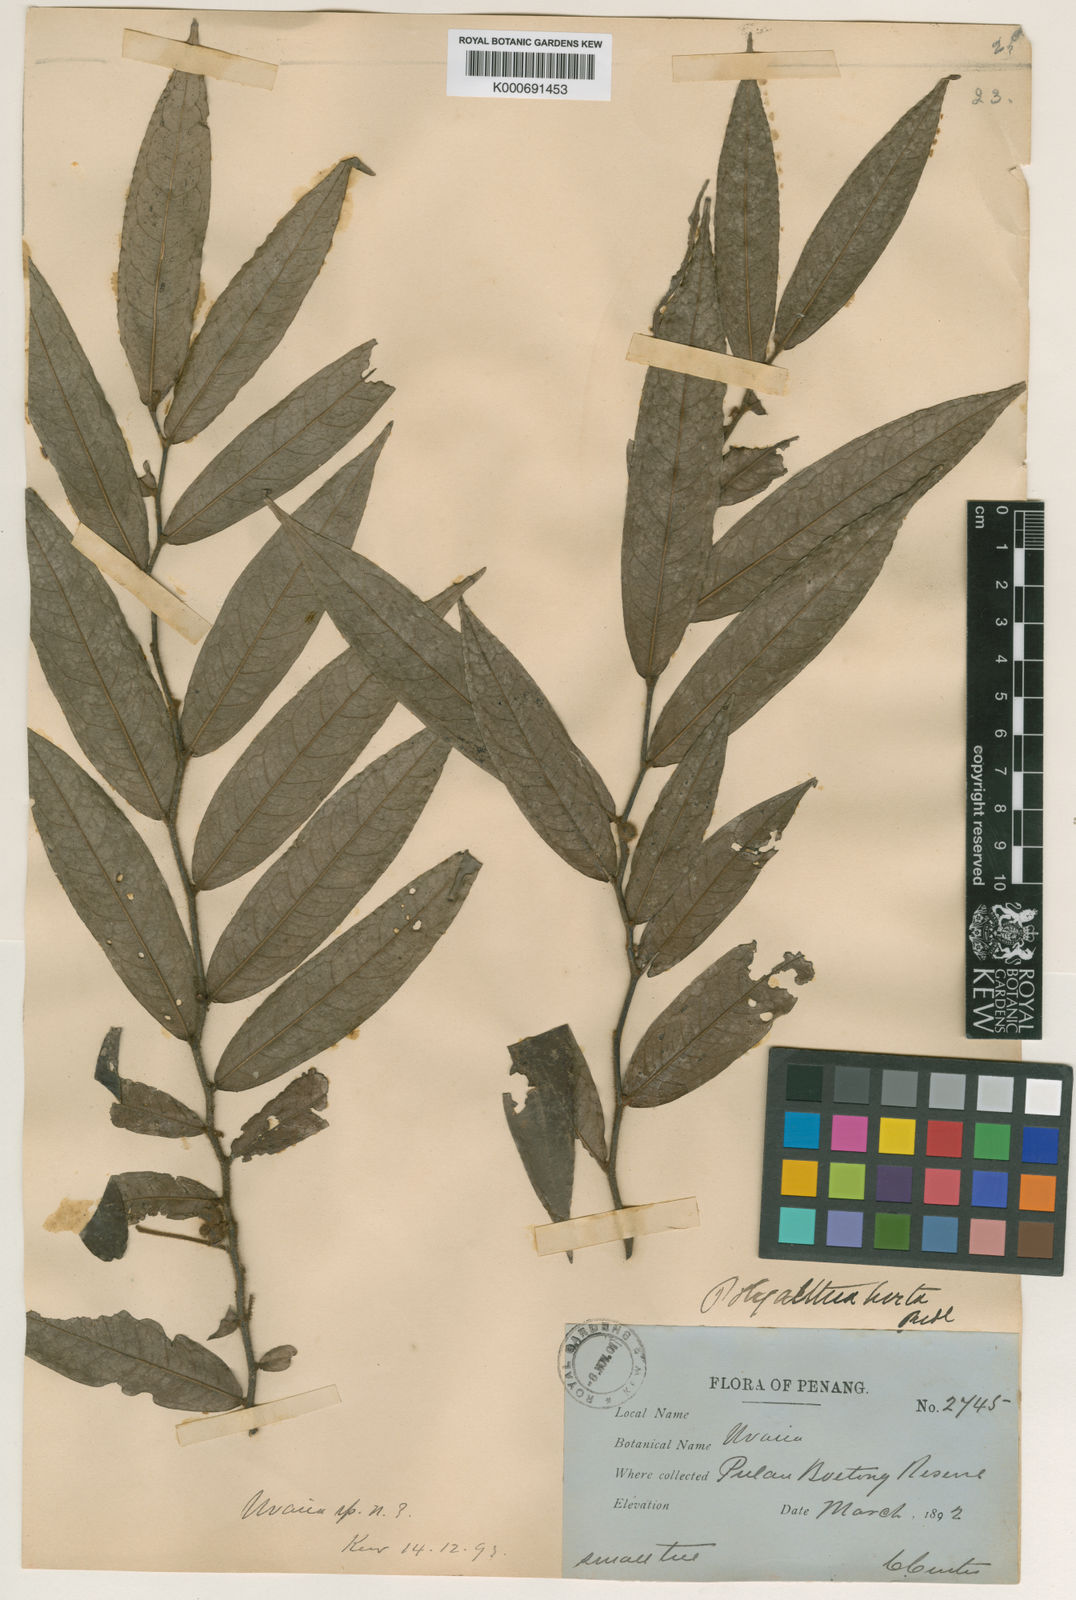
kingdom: Plantae
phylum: Tracheophyta
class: Magnoliopsida
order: Magnoliales
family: Annonaceae
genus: Polyalthia
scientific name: Polyalthia hirtifolia
